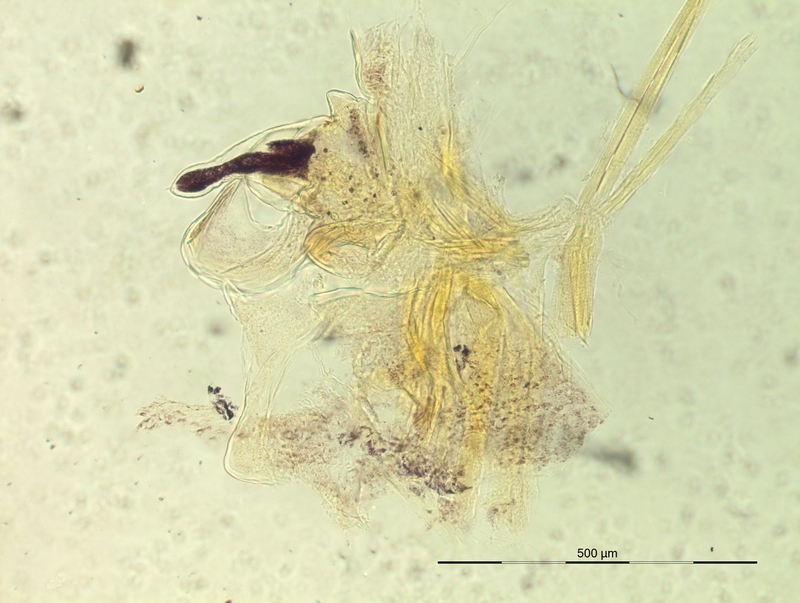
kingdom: Animalia
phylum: Arthropoda
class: Diplopoda
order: Chordeumatida
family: Craspedosomatidae
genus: Iulogona
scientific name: Iulogona hamuligerum
